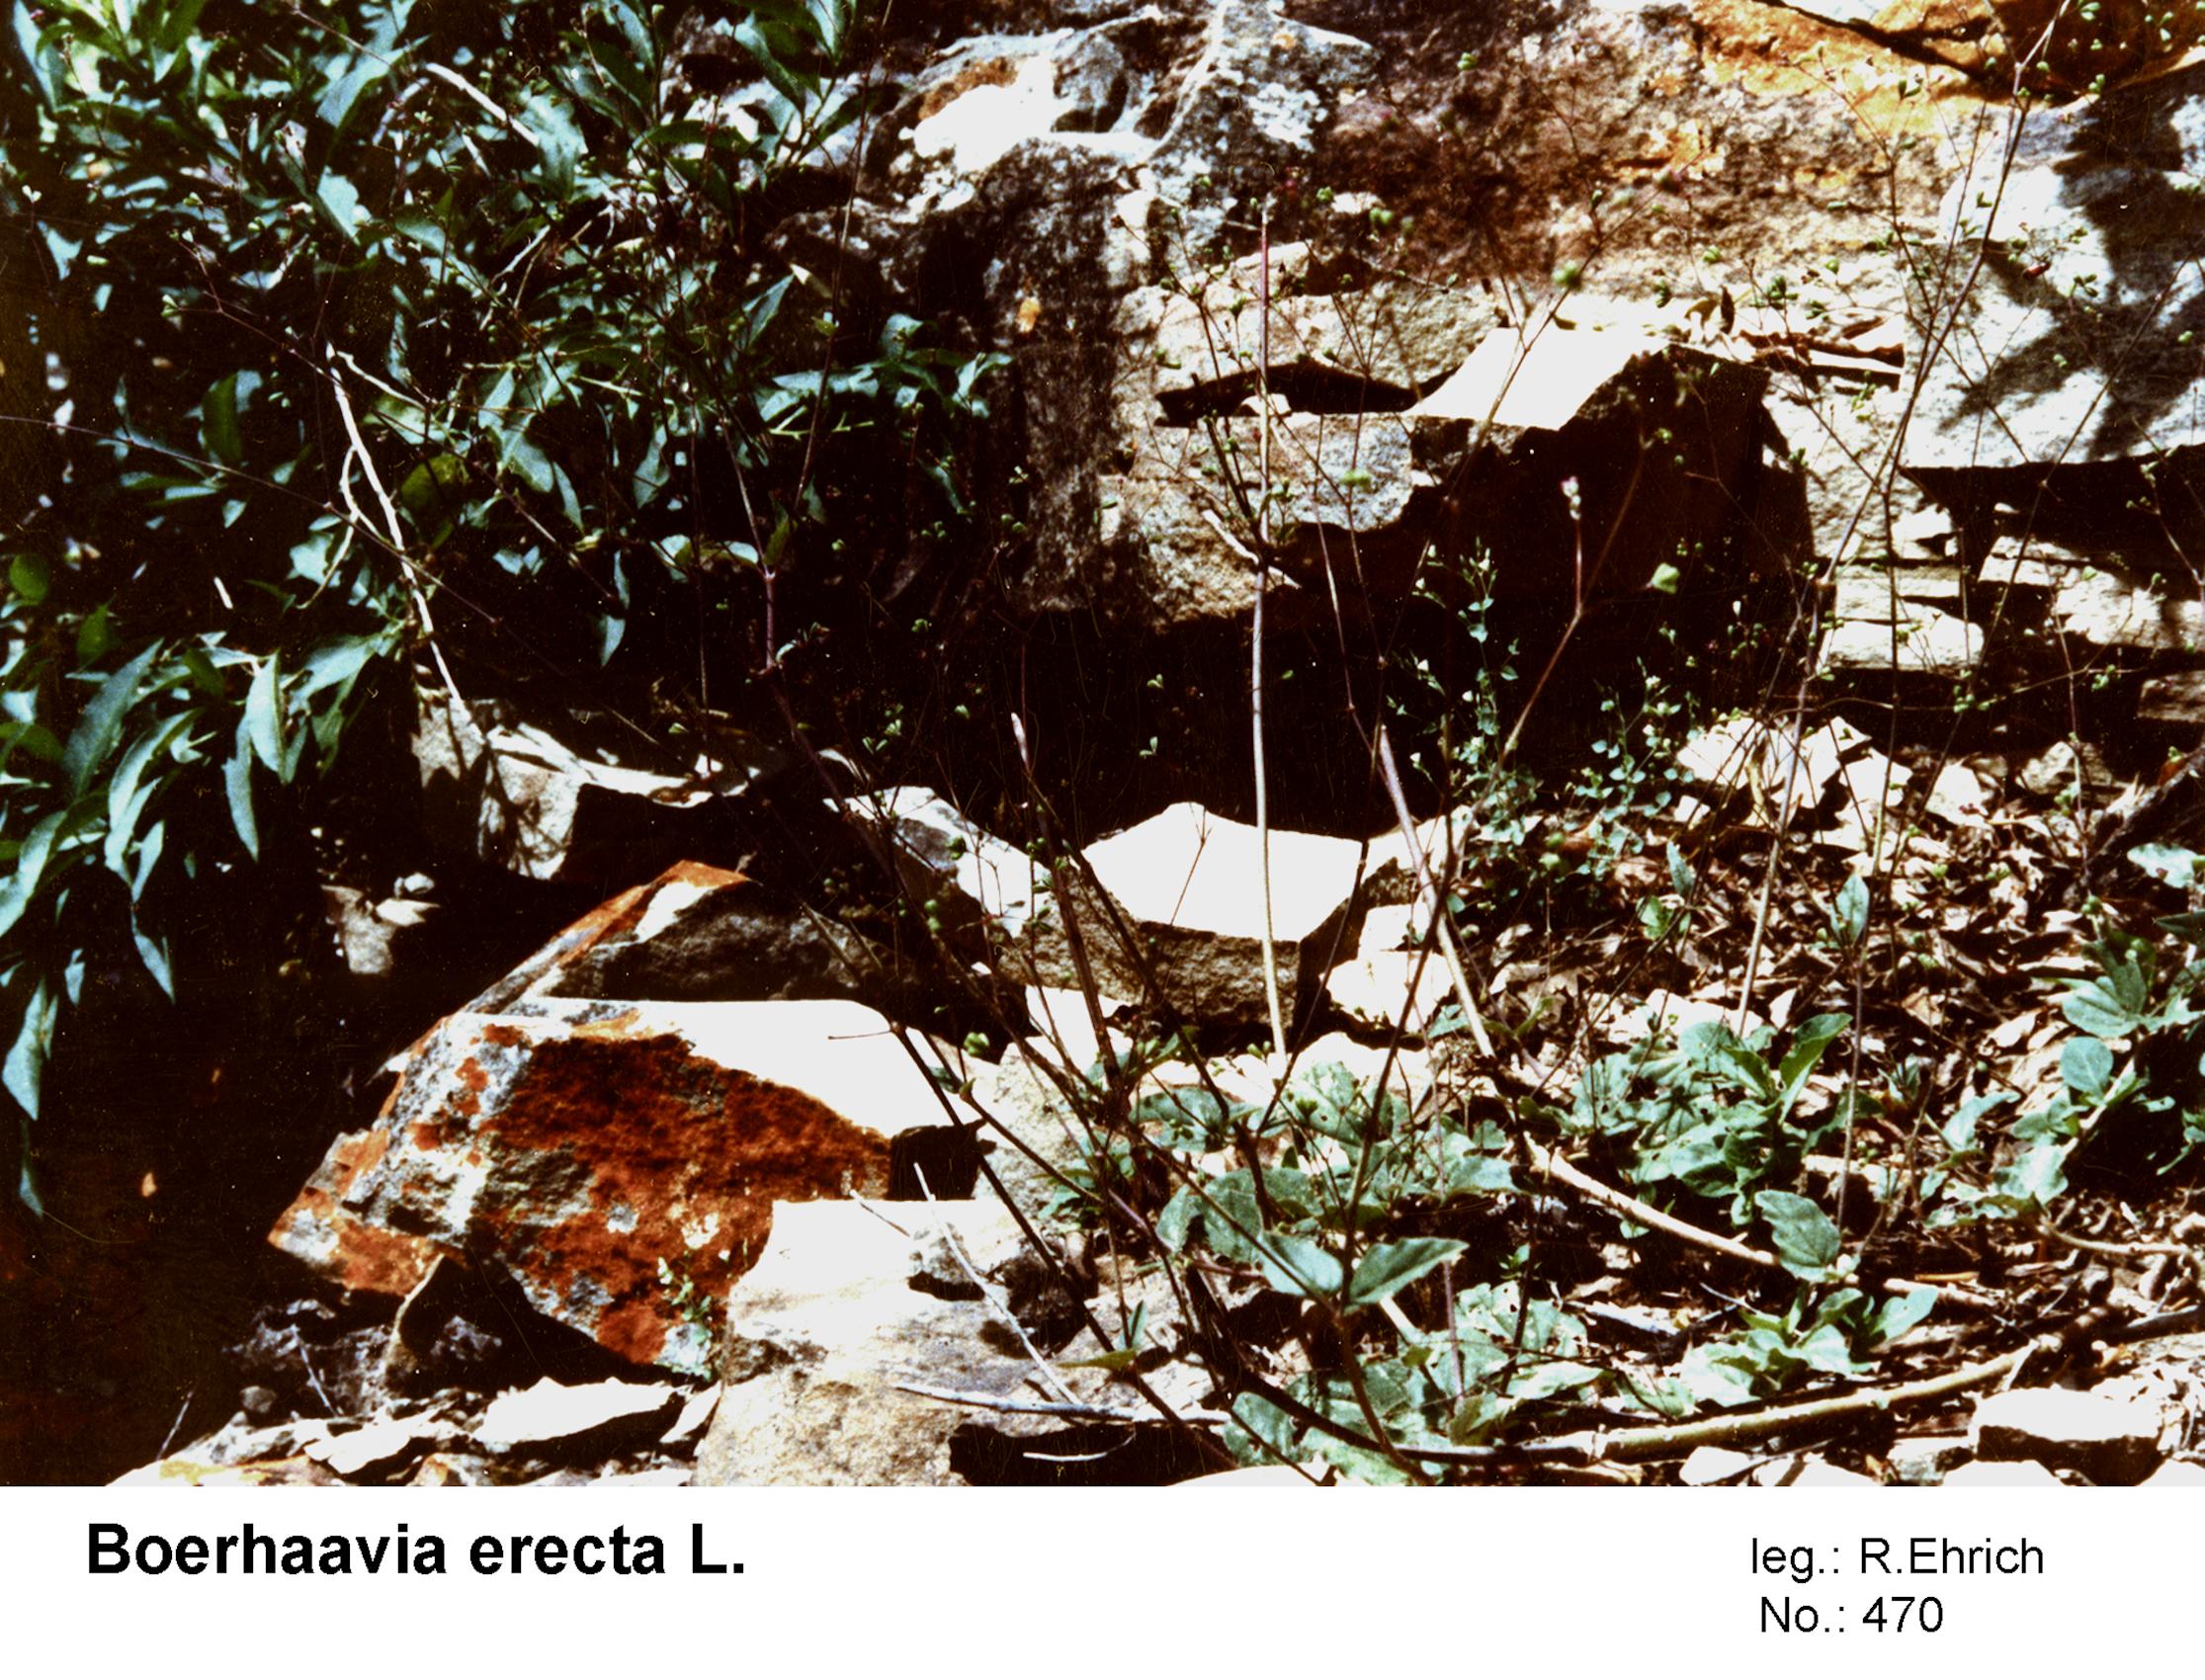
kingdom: Plantae
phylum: Tracheophyta
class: Magnoliopsida
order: Caryophyllales
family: Nyctaginaceae
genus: Boerhavia
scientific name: Boerhavia Boerhaavia erecta
